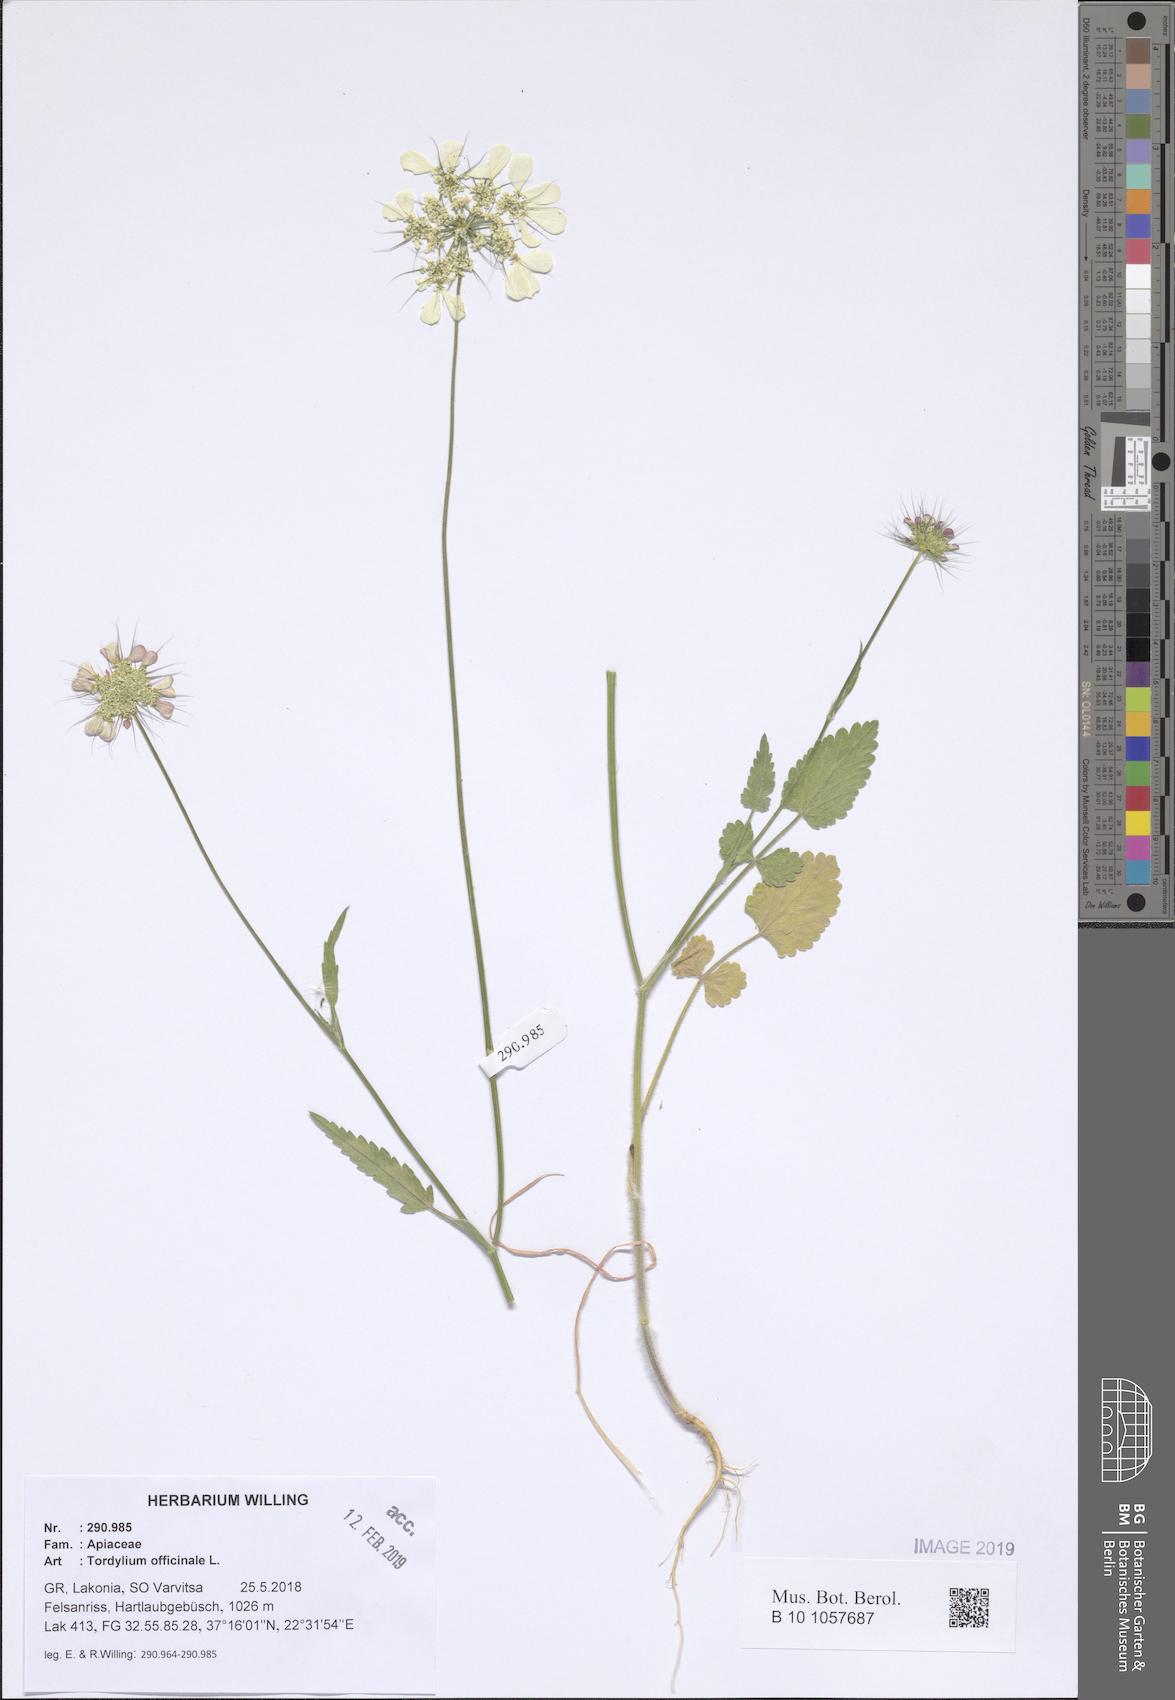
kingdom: Plantae
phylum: Tracheophyta
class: Magnoliopsida
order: Apiales
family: Apiaceae
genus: Tordylium
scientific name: Tordylium officinale
